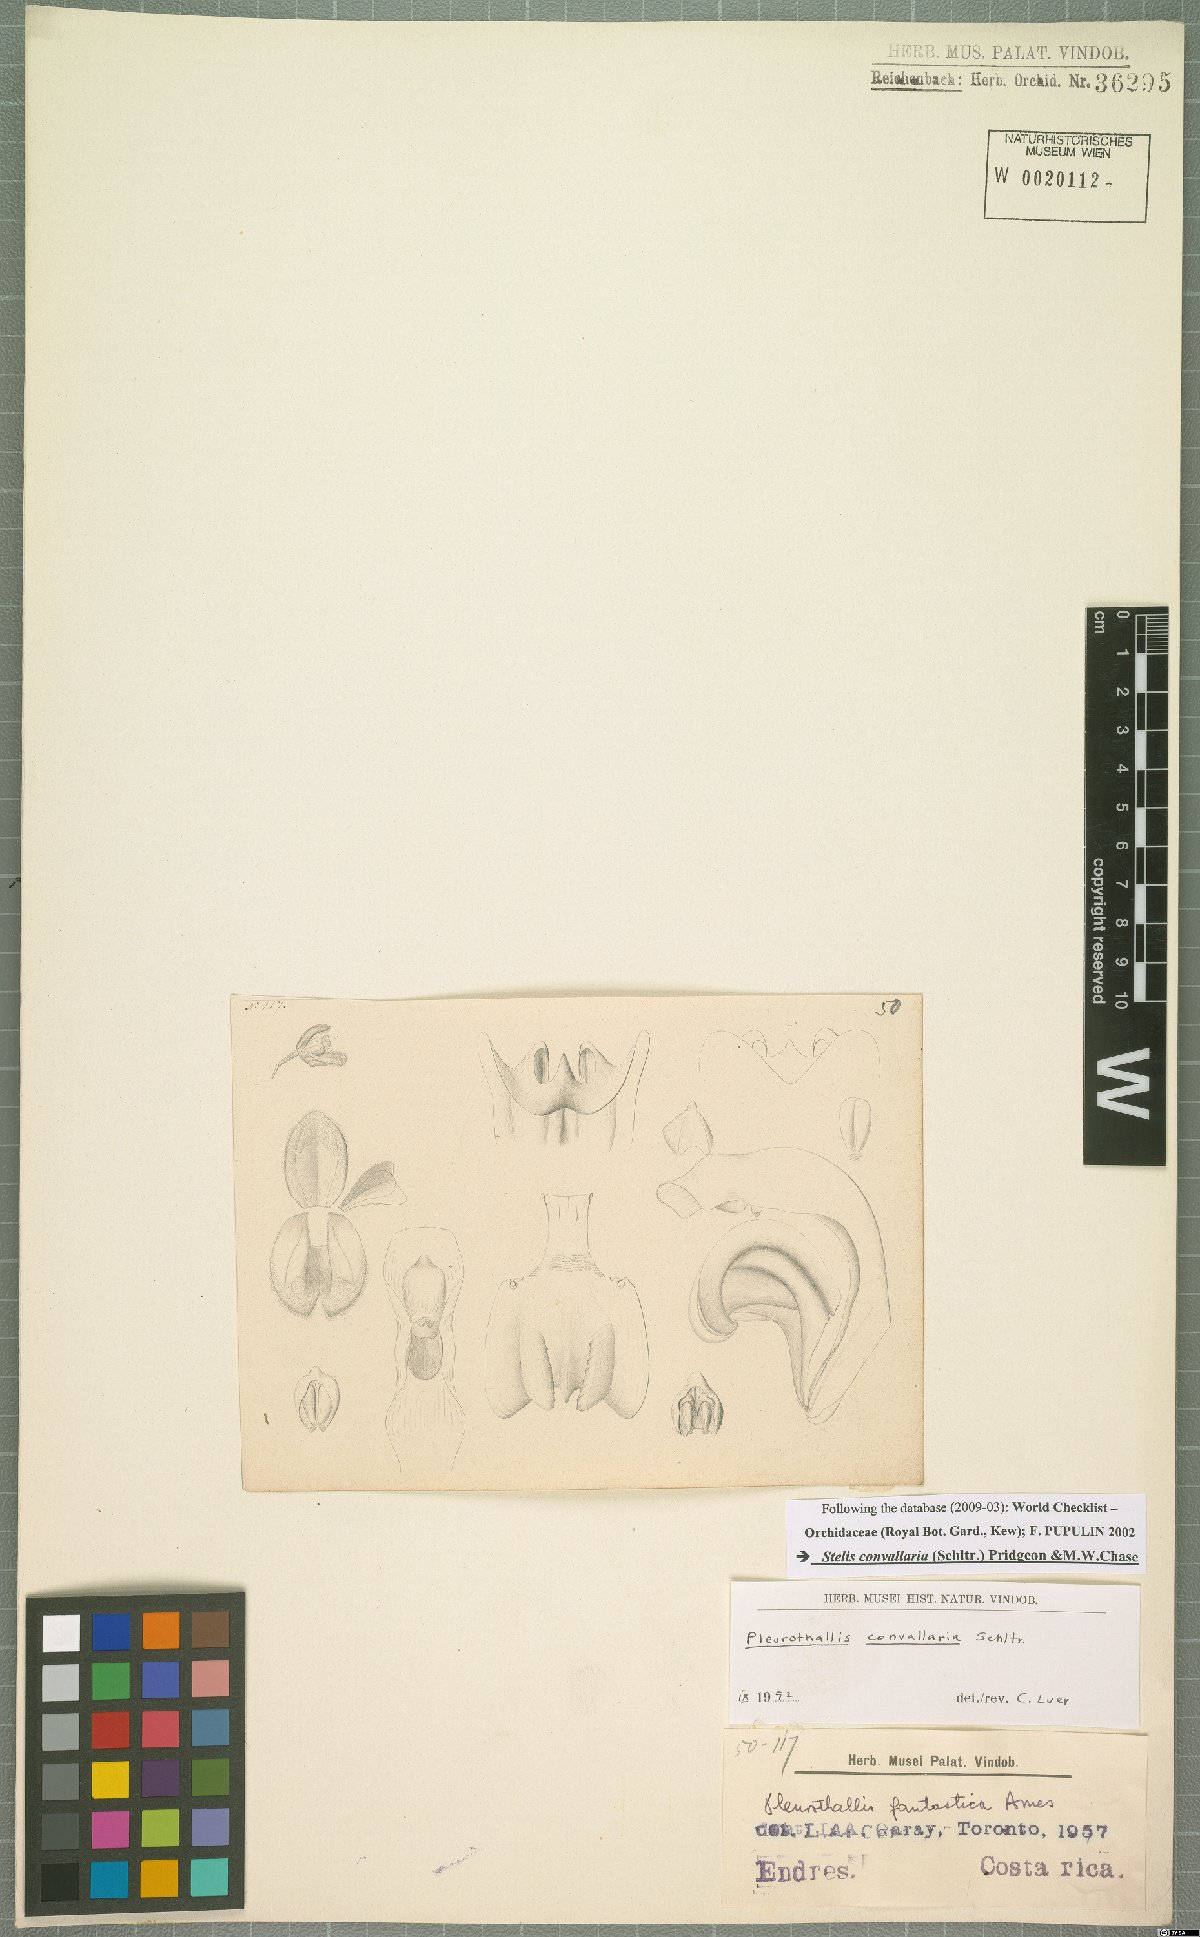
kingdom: Plantae
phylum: Tracheophyta
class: Liliopsida
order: Asparagales
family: Orchidaceae
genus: Stelis
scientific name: Stelis convallaria
